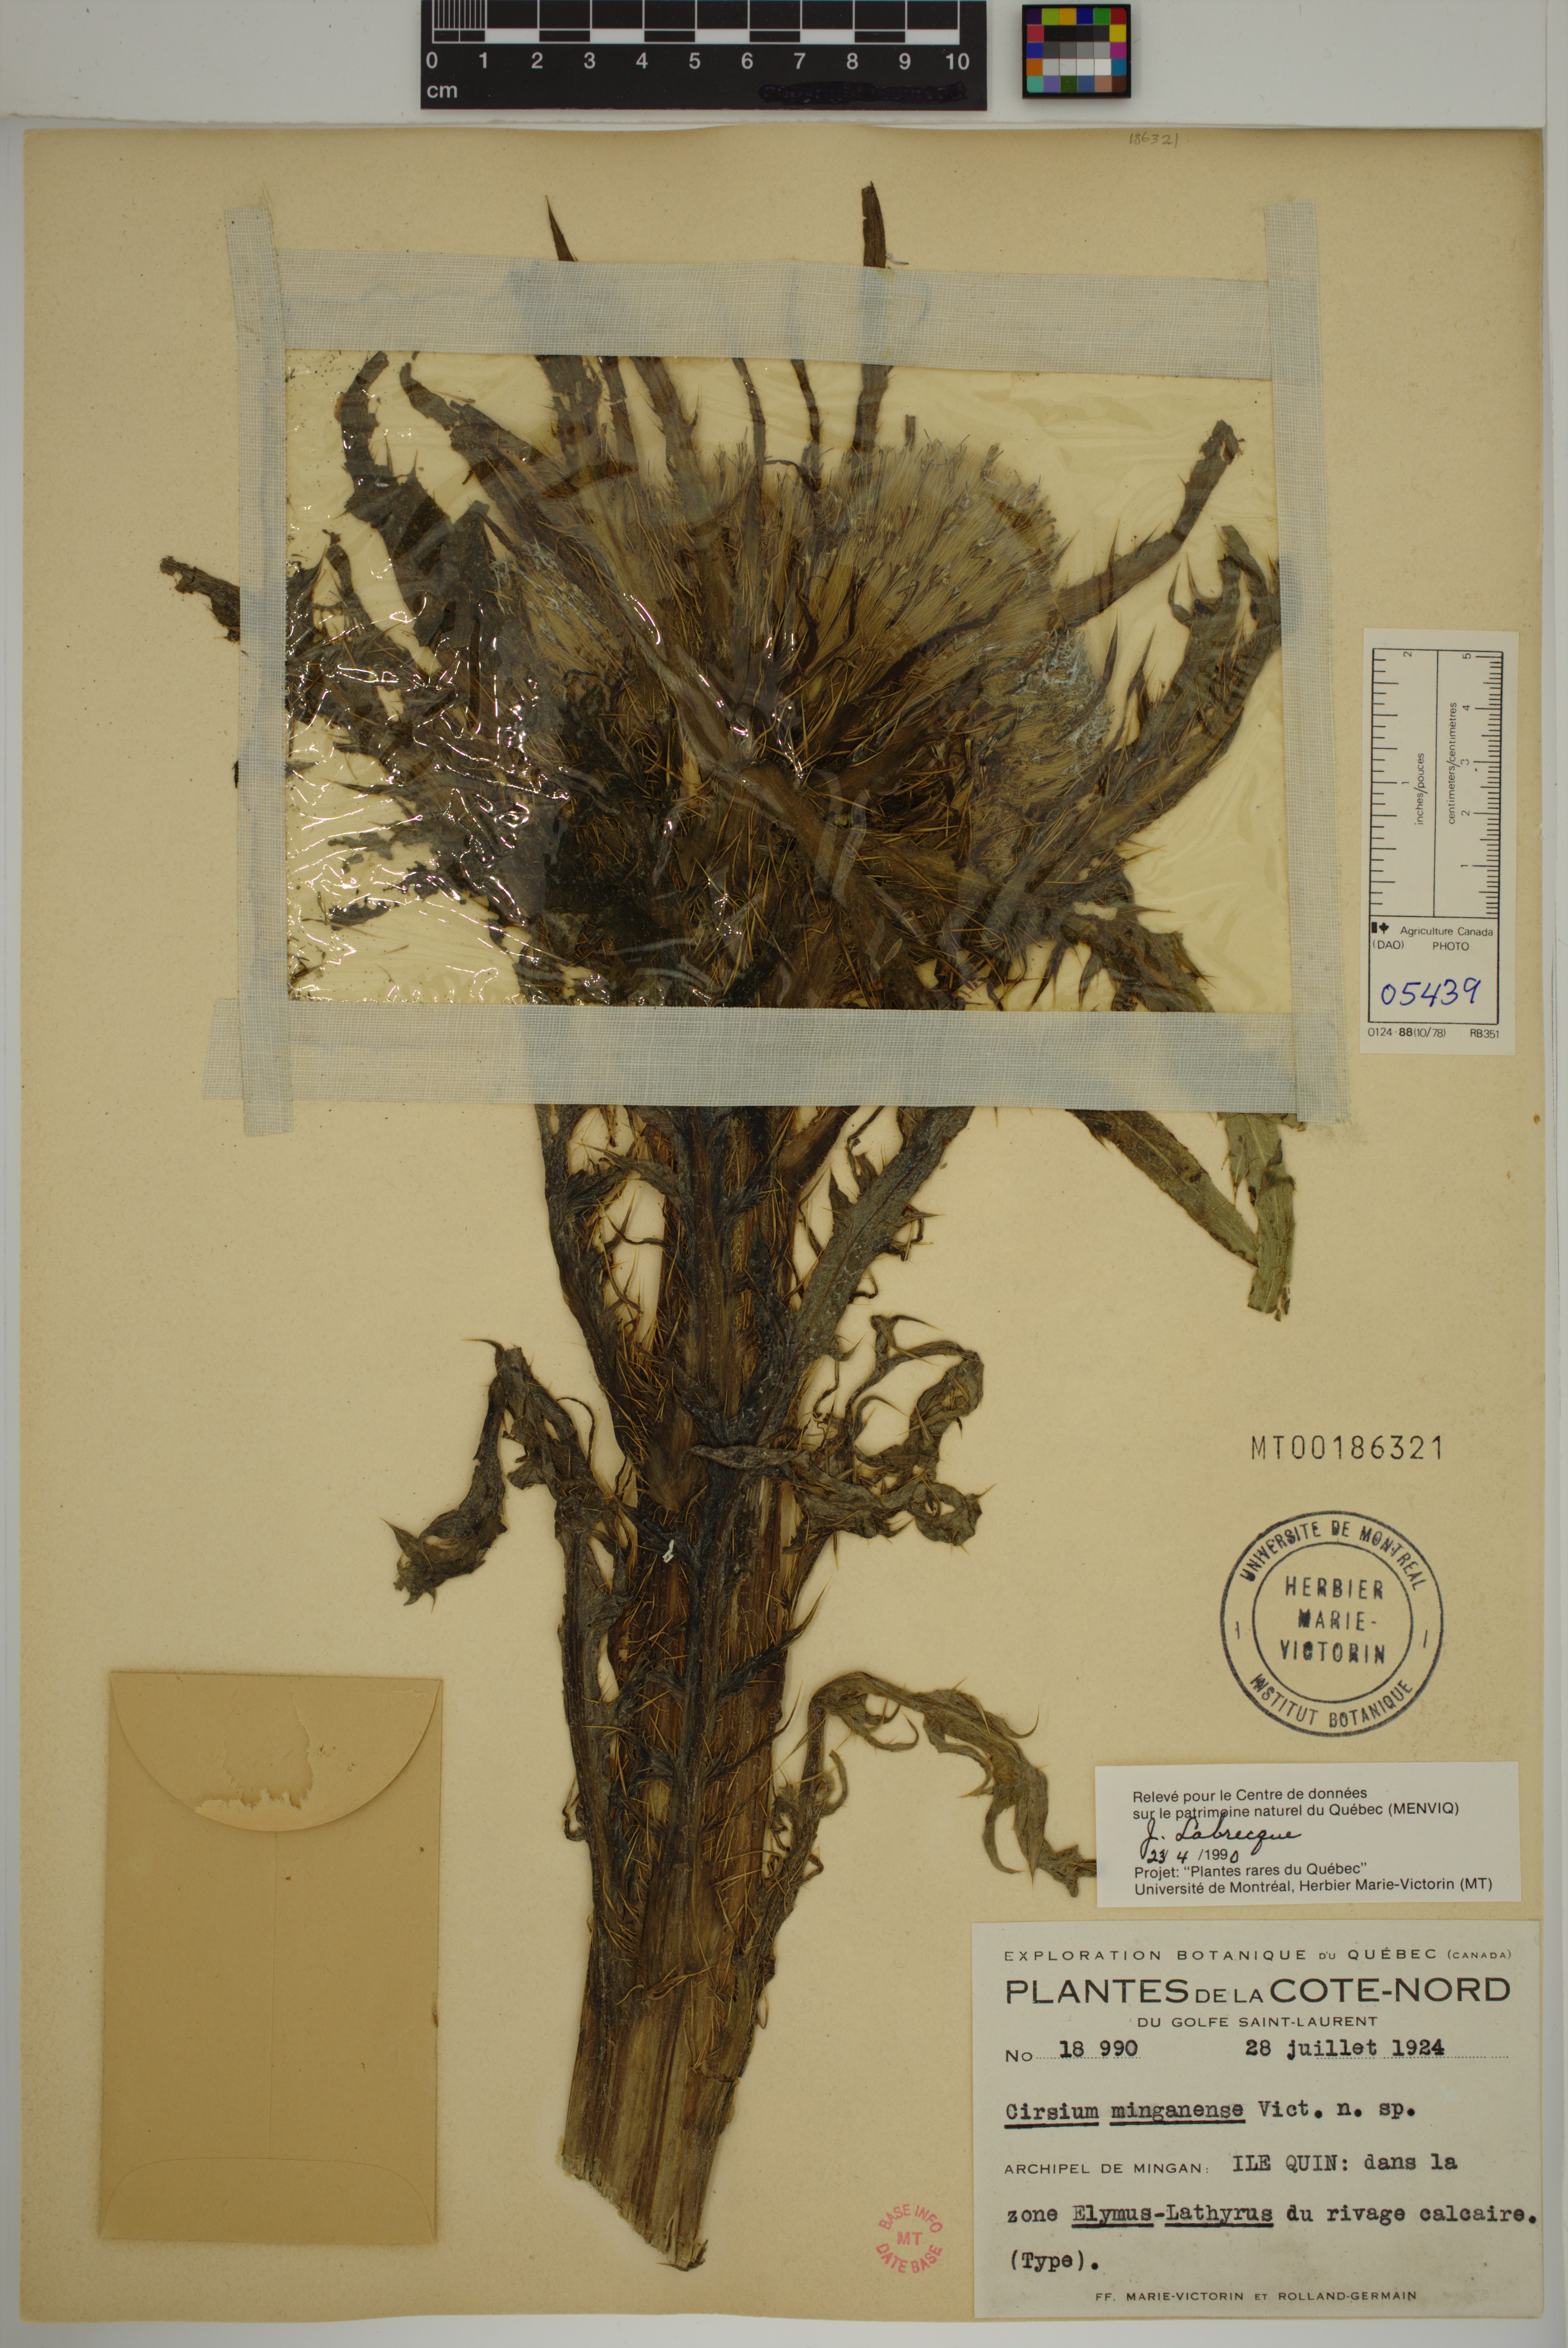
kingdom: Plantae
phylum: Tracheophyta
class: Magnoliopsida
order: Asterales
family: Asteraceae
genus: Cirsium
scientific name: Cirsium scariosum
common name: Meadow thistle
